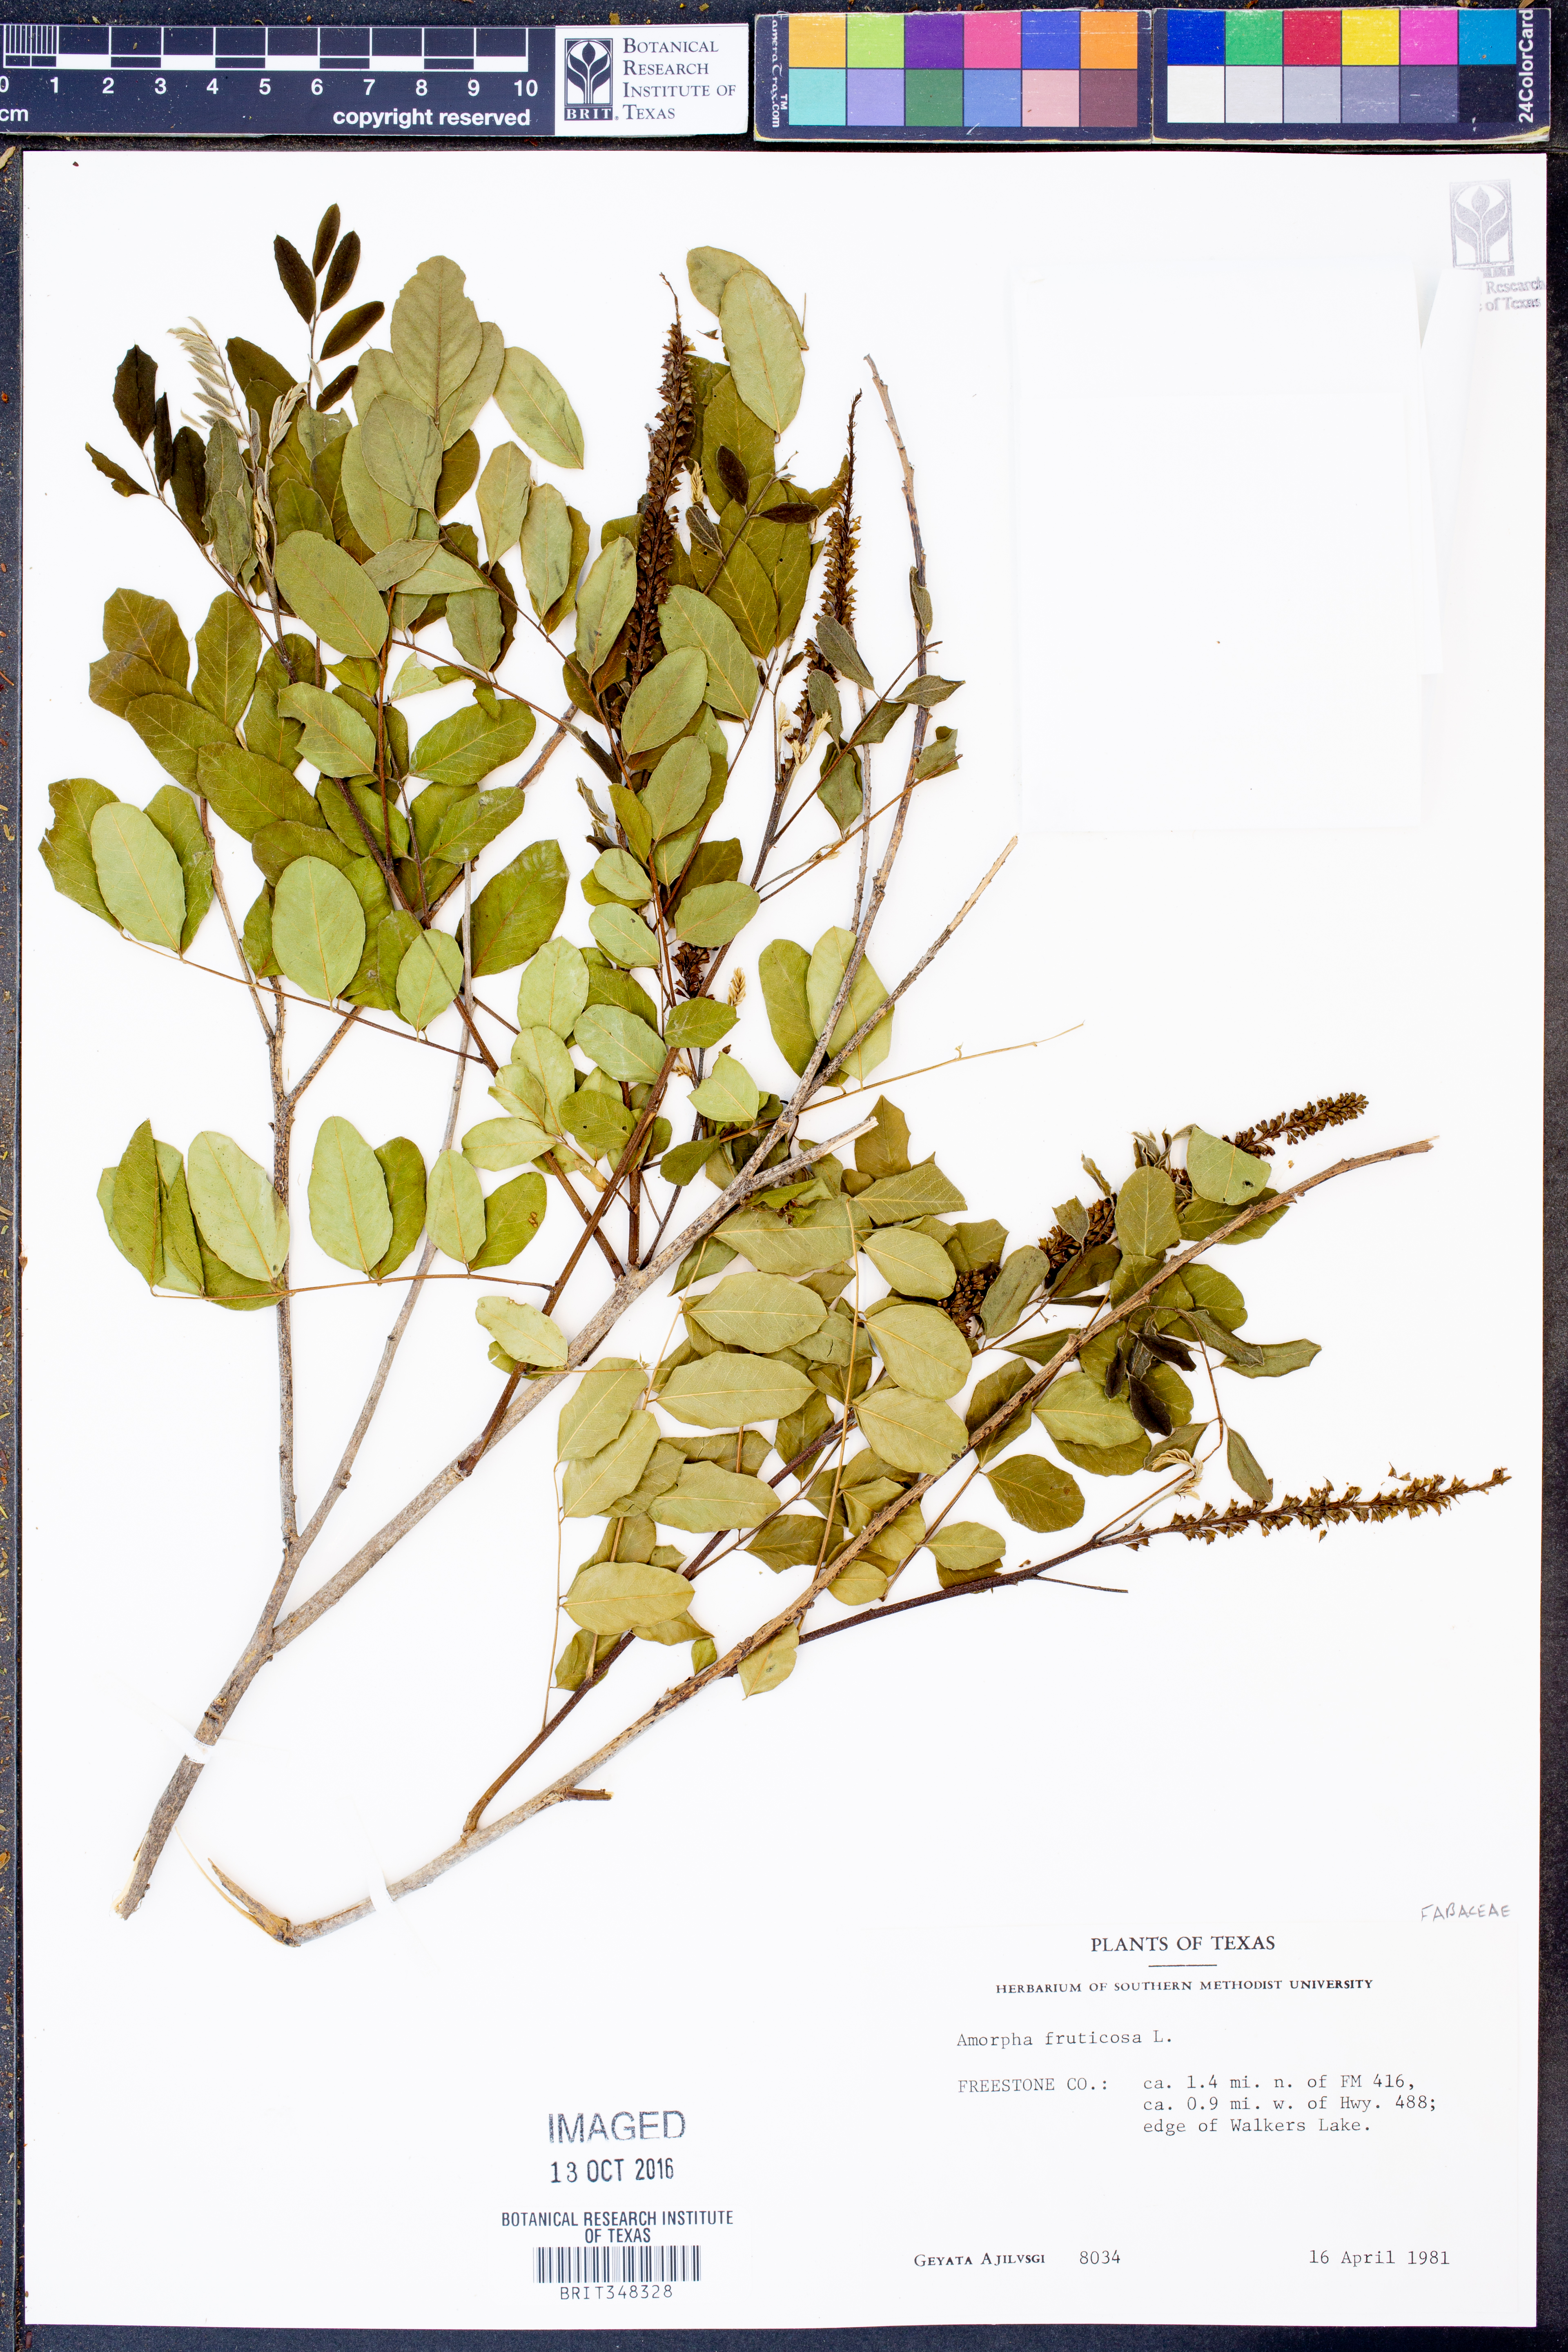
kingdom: Plantae
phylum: Tracheophyta
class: Magnoliopsida
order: Fabales
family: Fabaceae
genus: Amorpha
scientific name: Amorpha fruticosa
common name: False indigo
